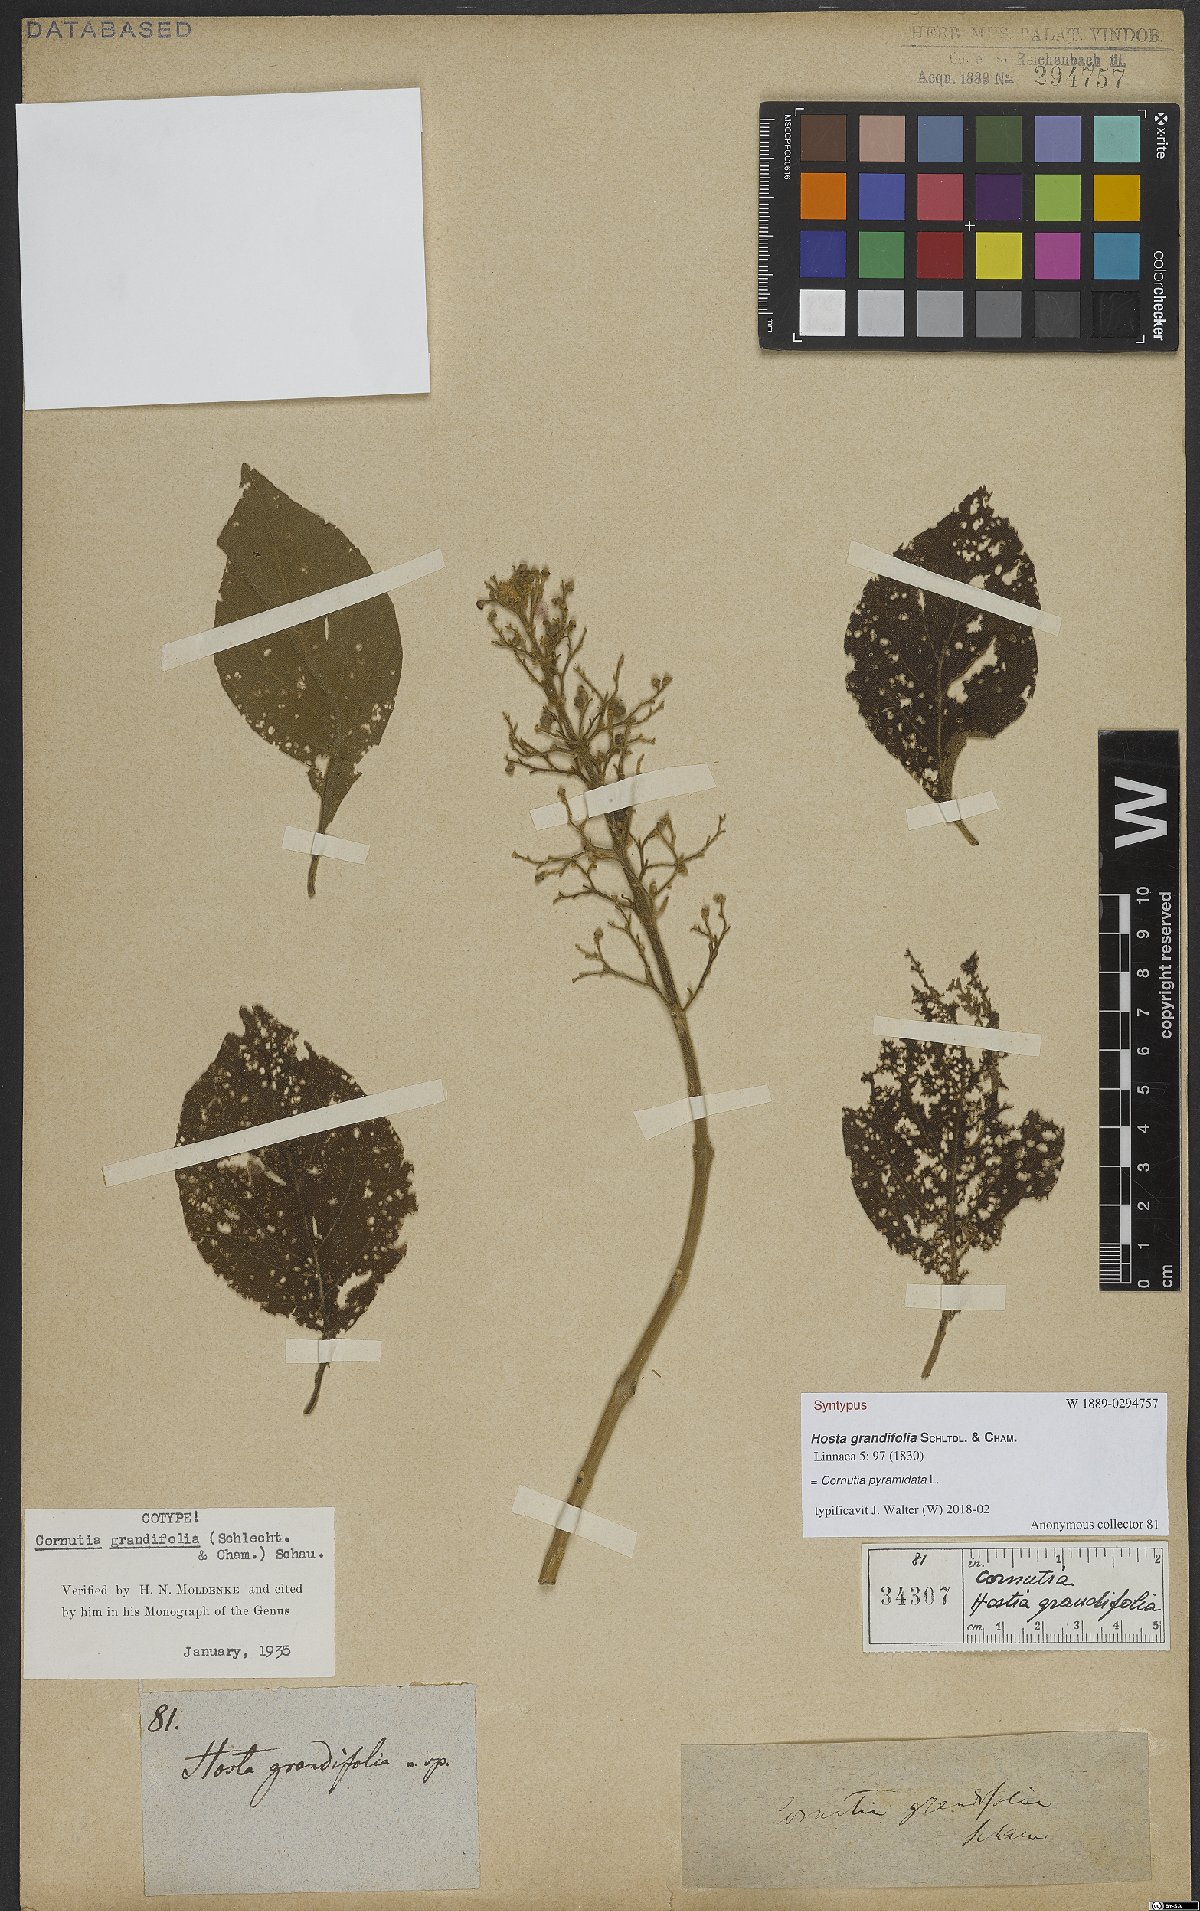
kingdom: Plantae
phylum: Tracheophyta
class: Magnoliopsida
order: Lamiales
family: Lamiaceae
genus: Cornutia
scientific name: Cornutia pyramidata
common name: Azulejo
